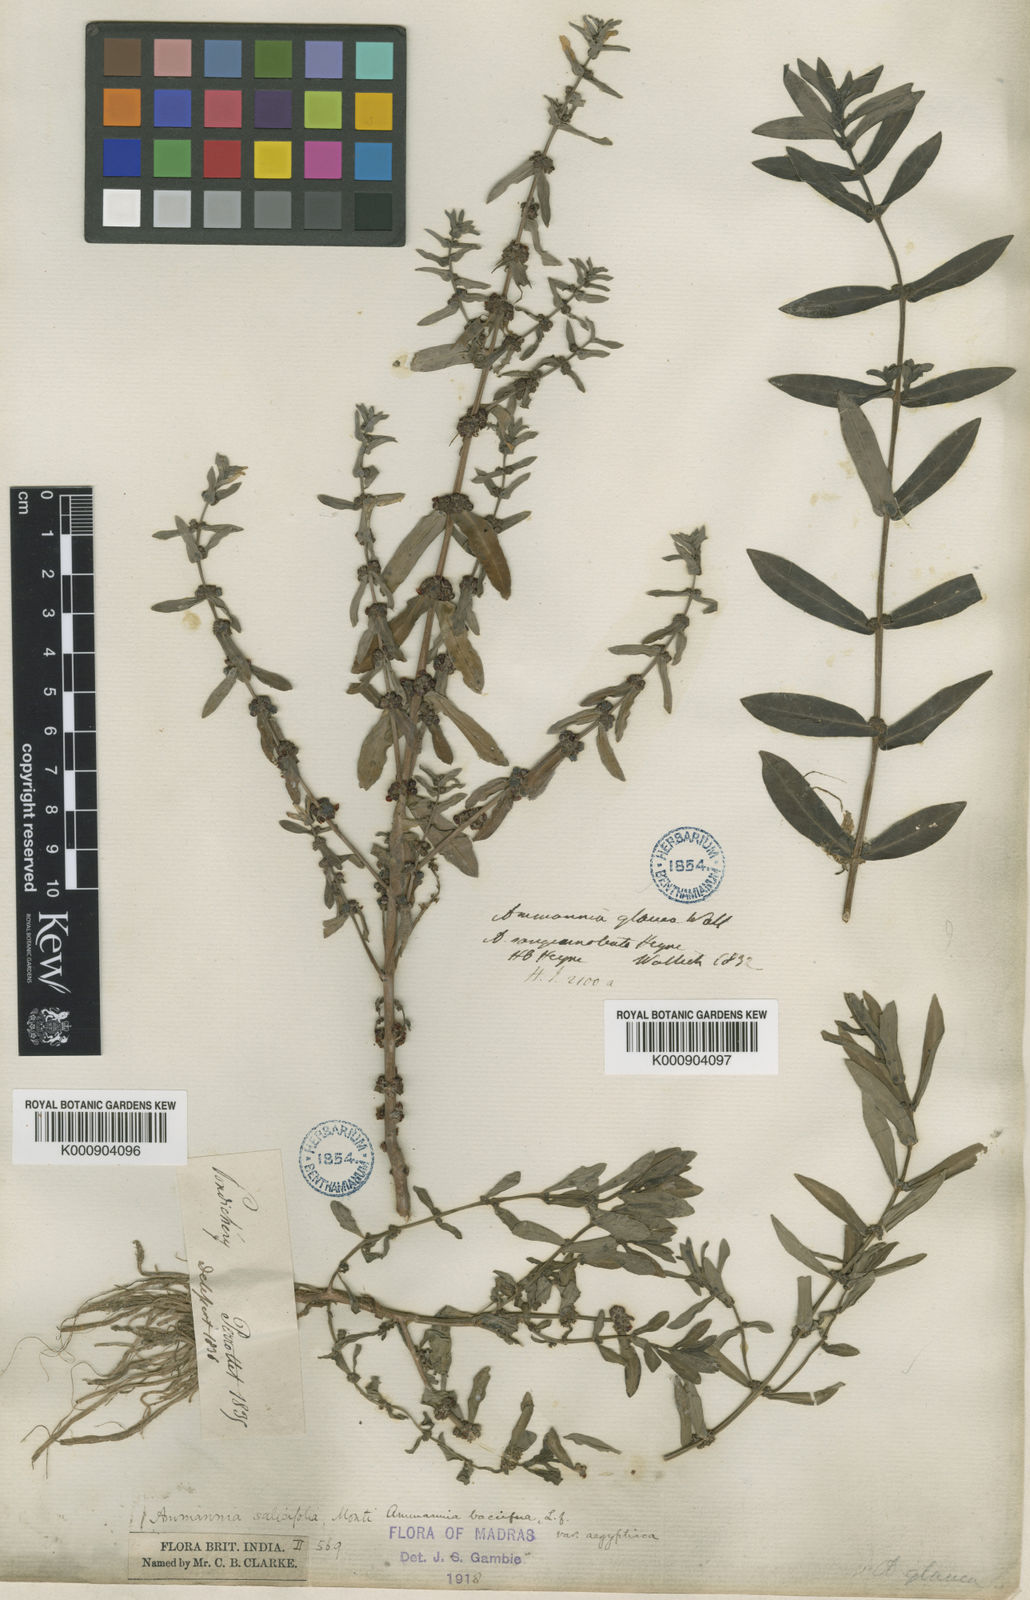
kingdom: Plantae
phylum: Tracheophyta
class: Magnoliopsida
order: Myrtales
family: Lythraceae
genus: Ammannia
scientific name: Ammannia baccifera
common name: Blistering ammania
